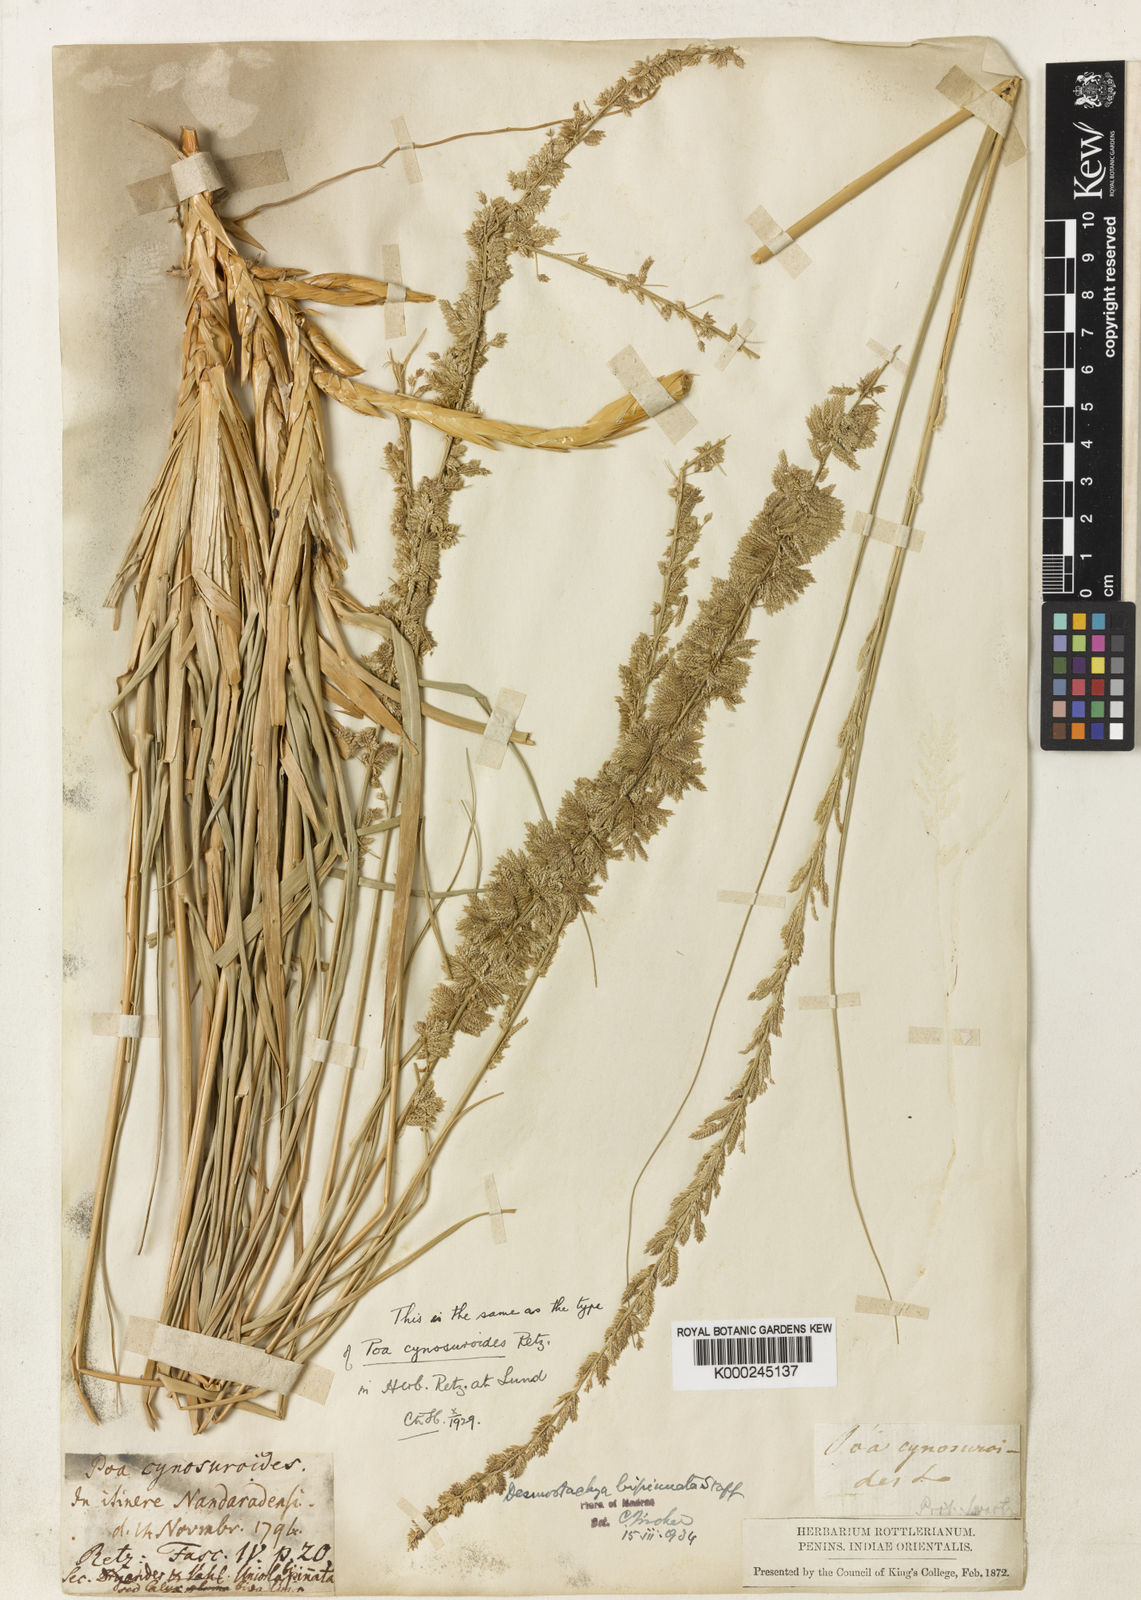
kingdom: Plantae
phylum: Tracheophyta
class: Liliopsida
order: Poales
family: Poaceae
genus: Desmostachya
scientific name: Desmostachya bipinnata
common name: Crowfoot grass
